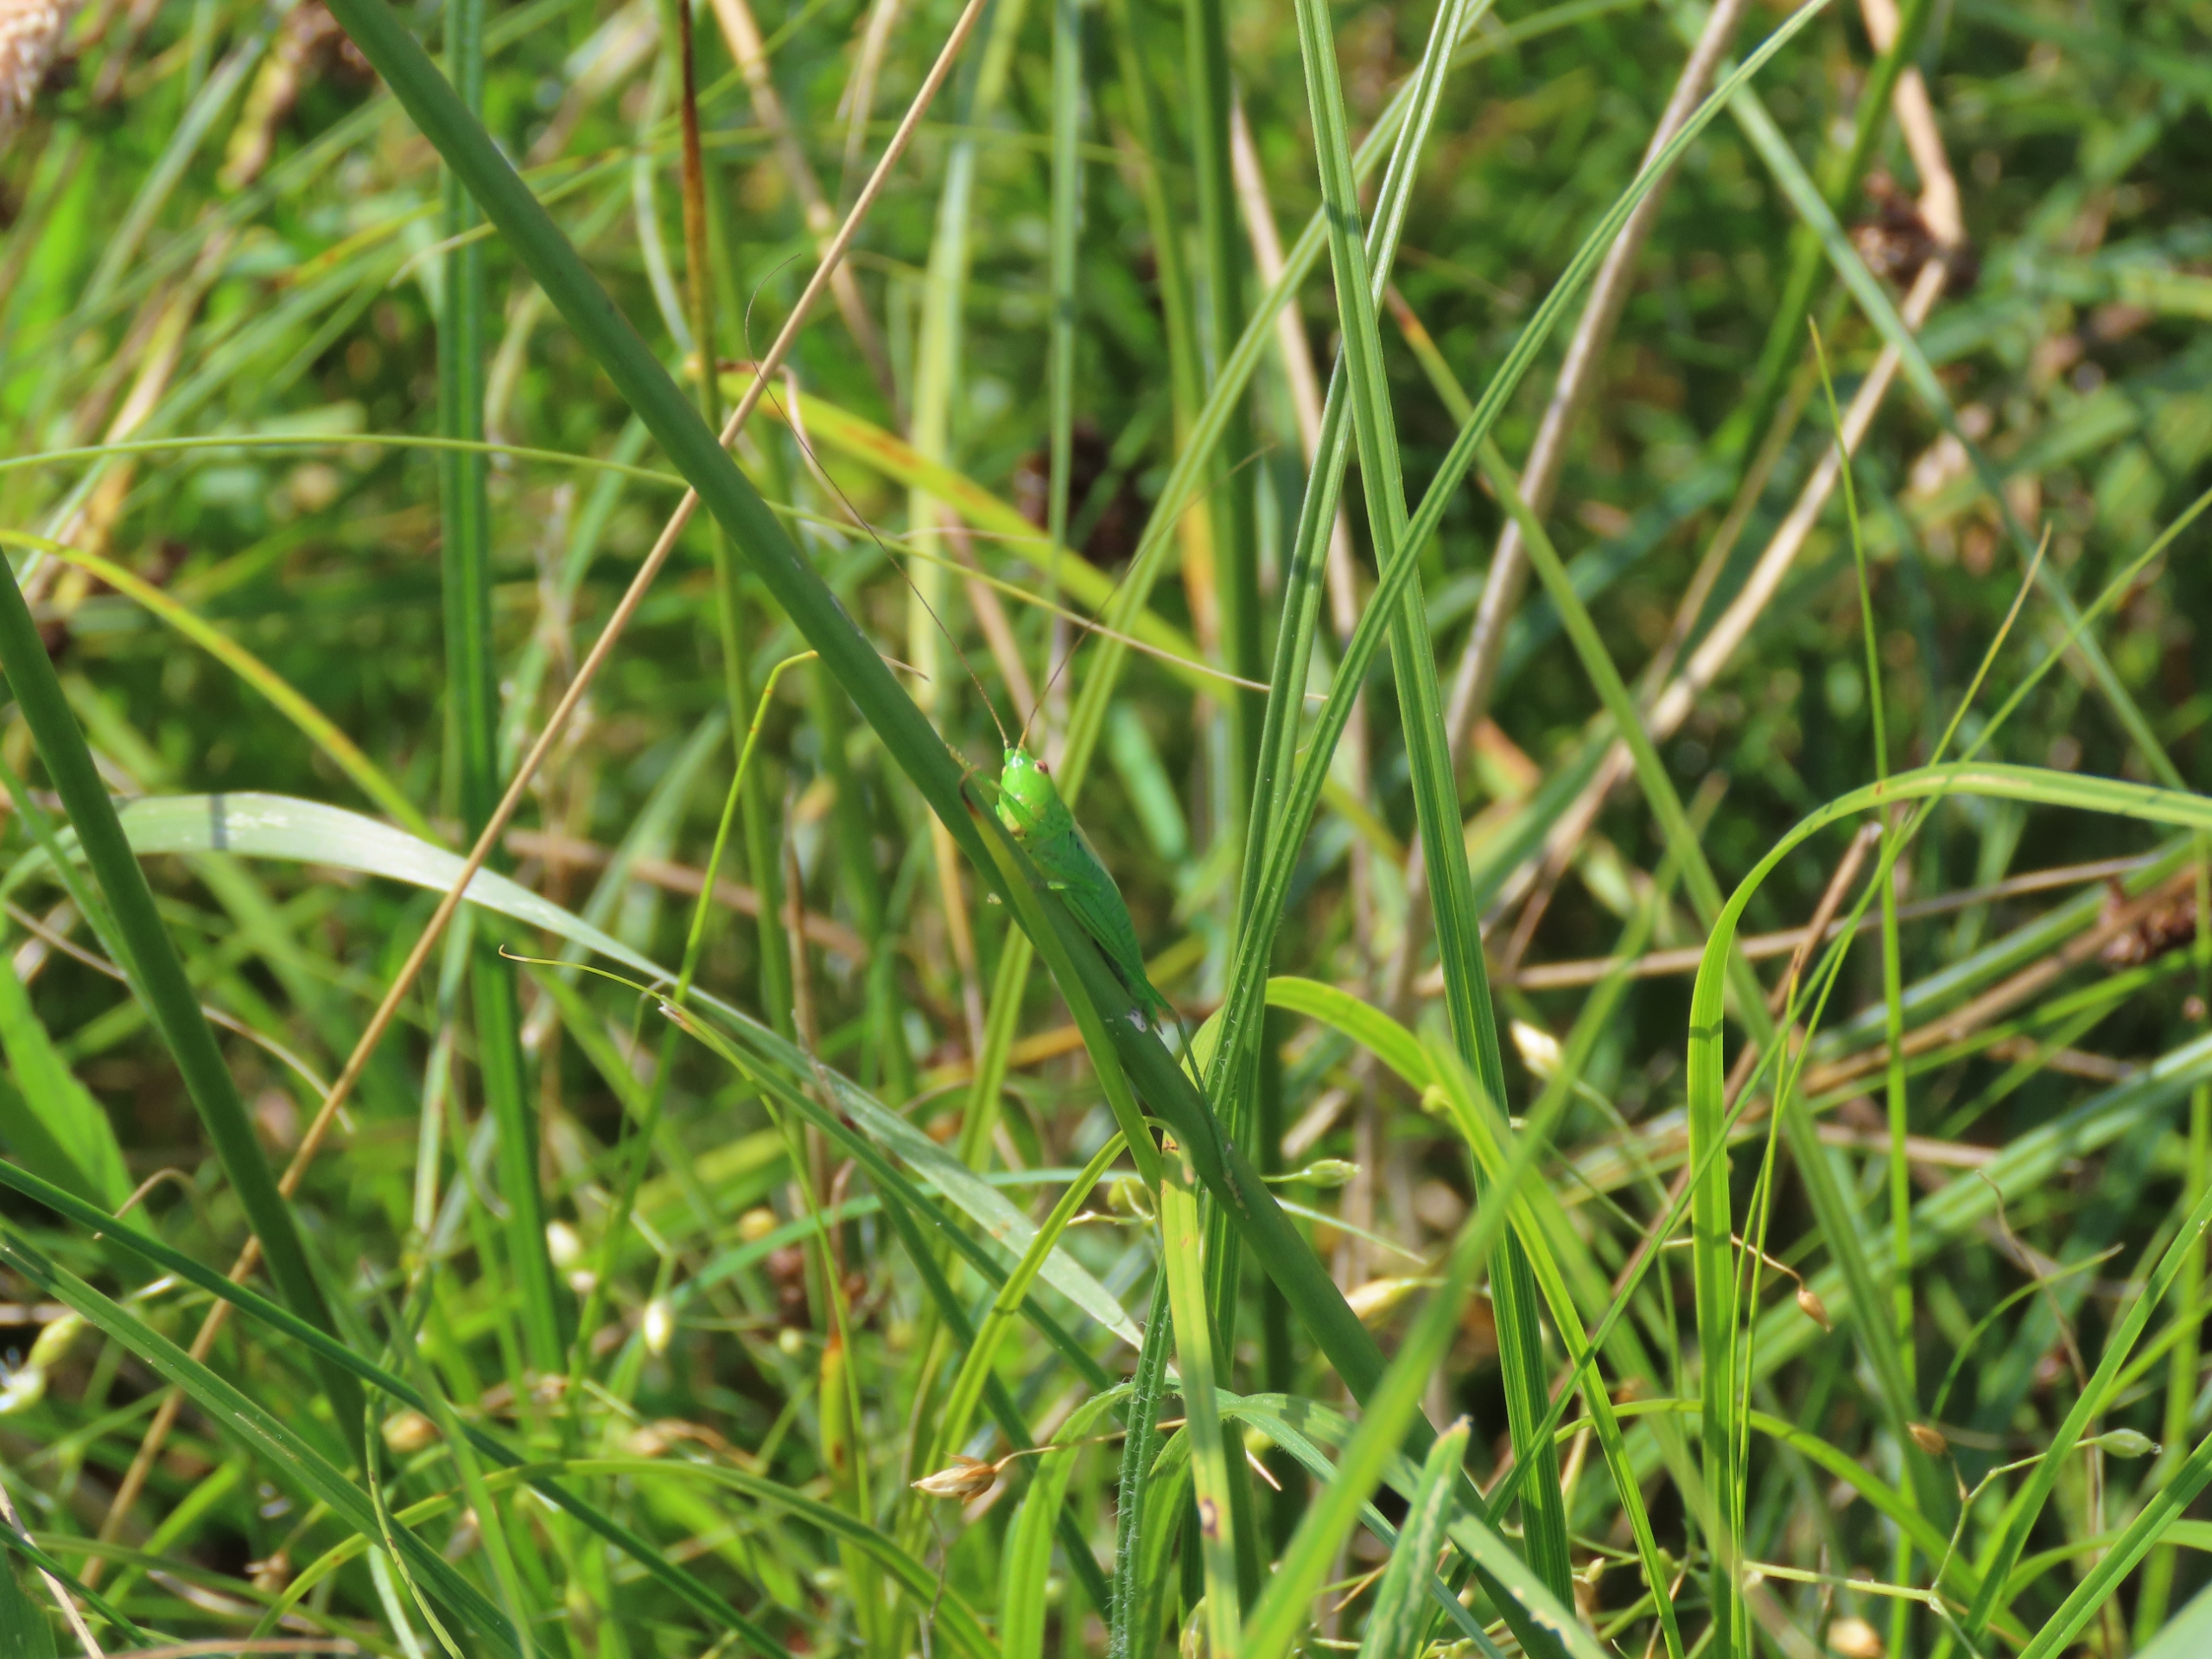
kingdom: Animalia
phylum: Arthropoda
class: Insecta
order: Orthoptera
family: Tettigoniidae
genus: Conocephalus
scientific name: Conocephalus dorsalis
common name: Sivgræshoppe
